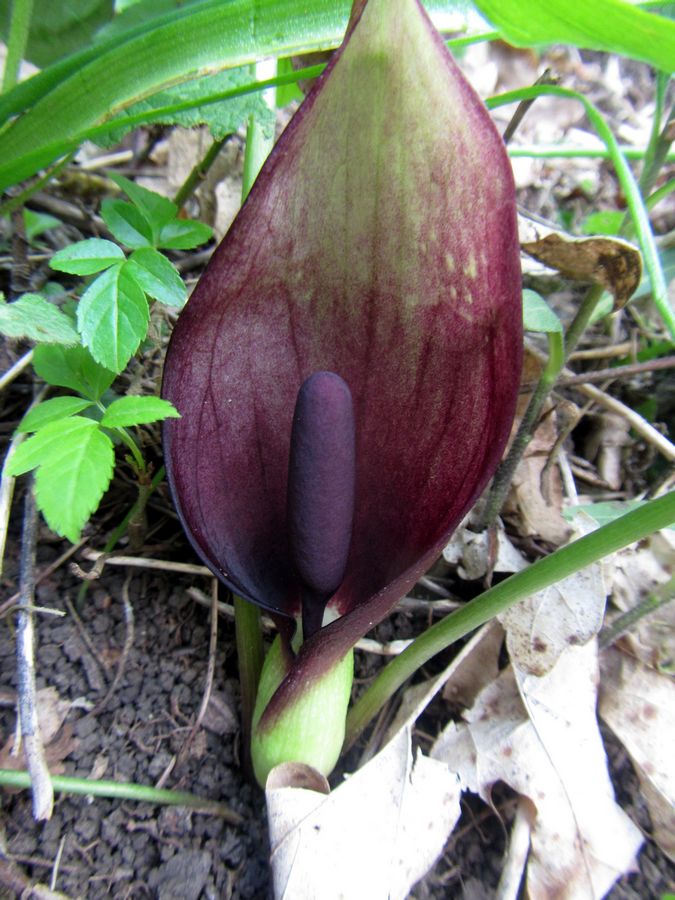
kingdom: Plantae
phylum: Tracheophyta
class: Liliopsida
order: Alismatales
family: Araceae
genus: Arum
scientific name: Arum orientale
